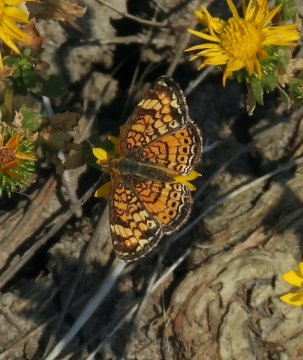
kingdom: Animalia
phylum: Arthropoda
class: Insecta
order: Lepidoptera
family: Nymphalidae
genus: Phyciodes
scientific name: Phyciodes tharos
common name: Pearl Crescent
